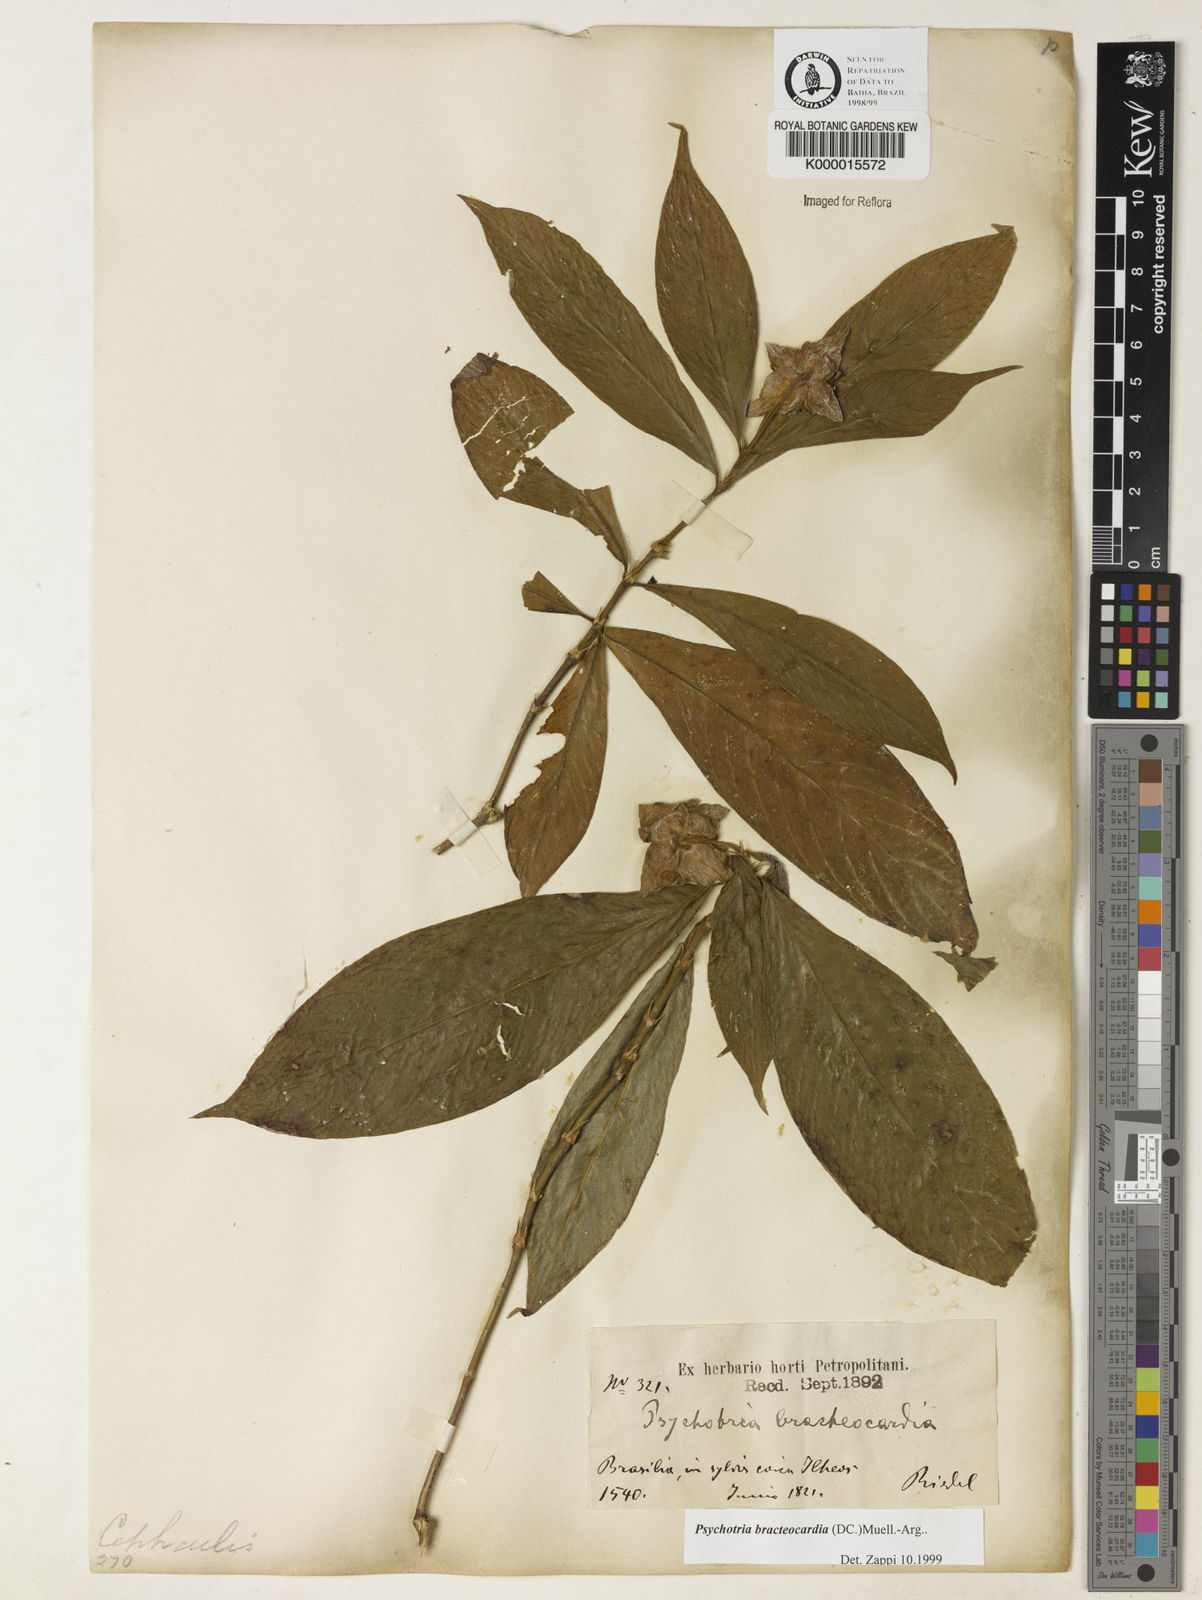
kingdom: Plantae
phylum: Tracheophyta
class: Magnoliopsida
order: Gentianales
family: Rubiaceae
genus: Psychotria
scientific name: Psychotria
